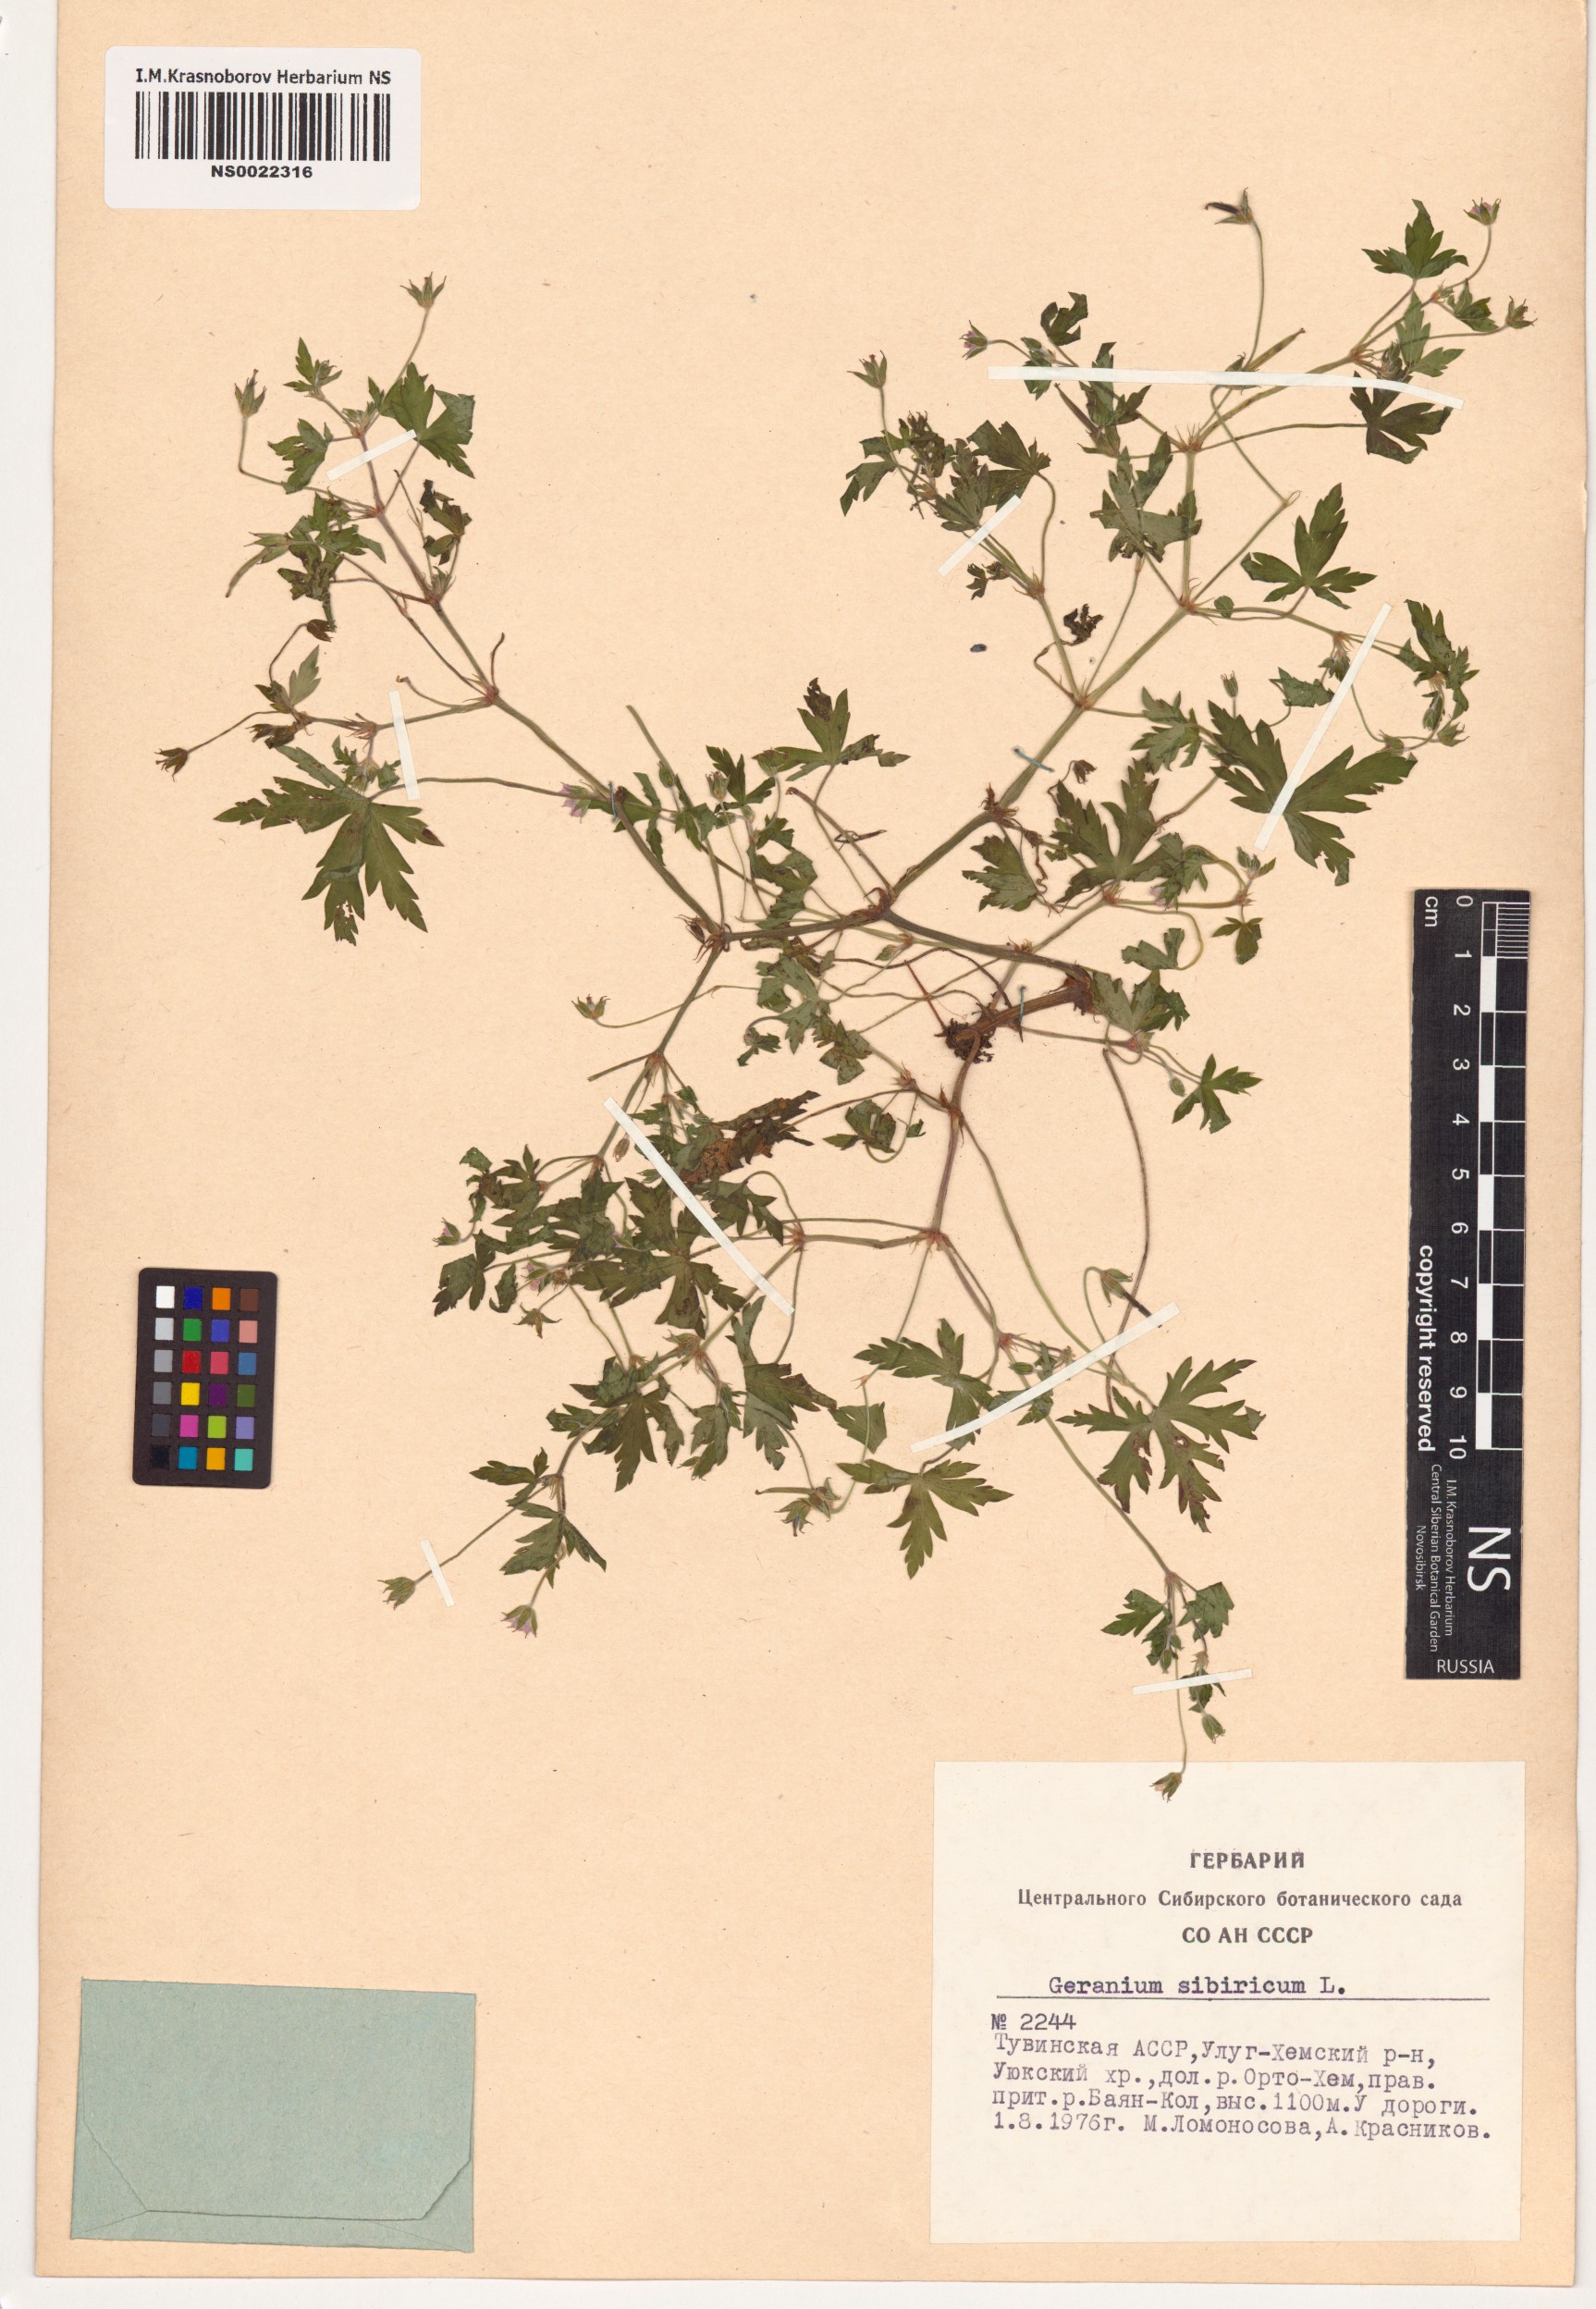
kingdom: Plantae
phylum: Tracheophyta
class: Magnoliopsida
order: Geraniales
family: Geraniaceae
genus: Geranium
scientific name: Geranium sibiricum
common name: Siberian crane's-bill
